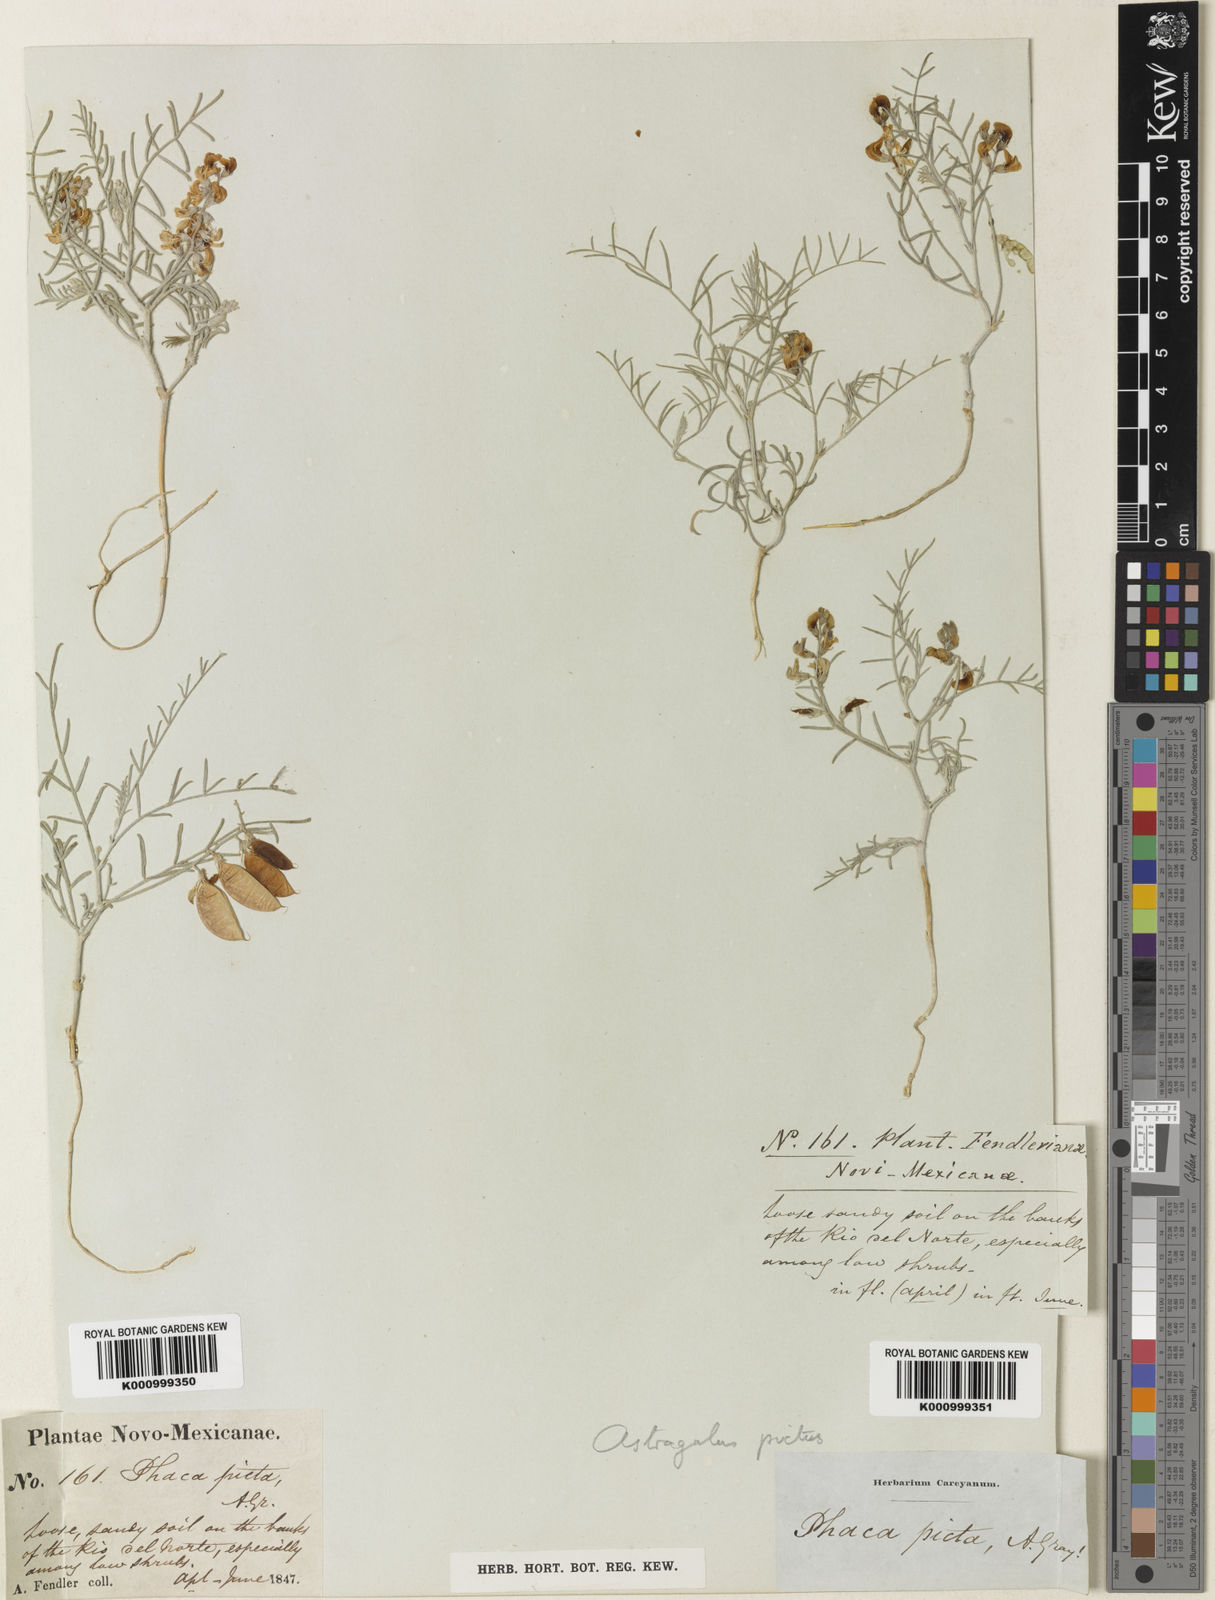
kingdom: Plantae
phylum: Tracheophyta
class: Magnoliopsida
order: Fabales
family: Fabaceae
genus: Astragalus
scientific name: Astragalus
